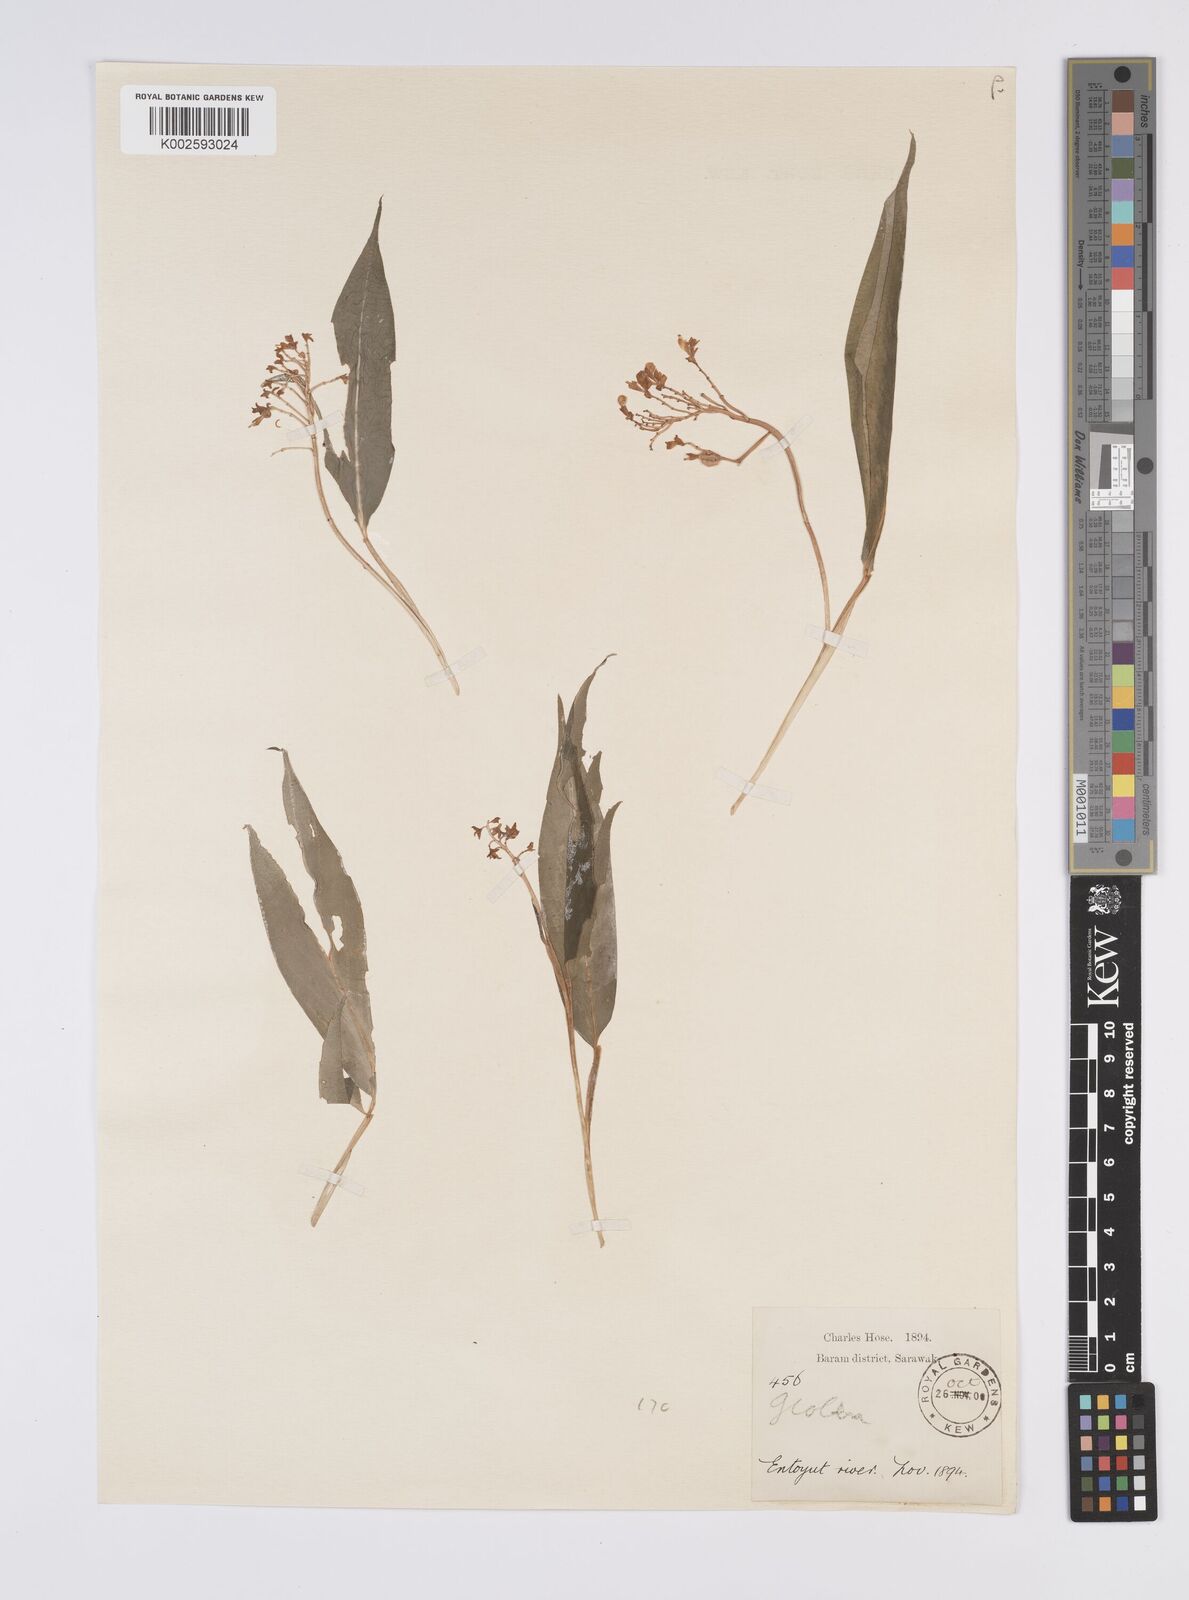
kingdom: Plantae
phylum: Tracheophyta
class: Liliopsida
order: Zingiberales
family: Zingiberaceae
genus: Globba
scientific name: Globba brachyanthera
